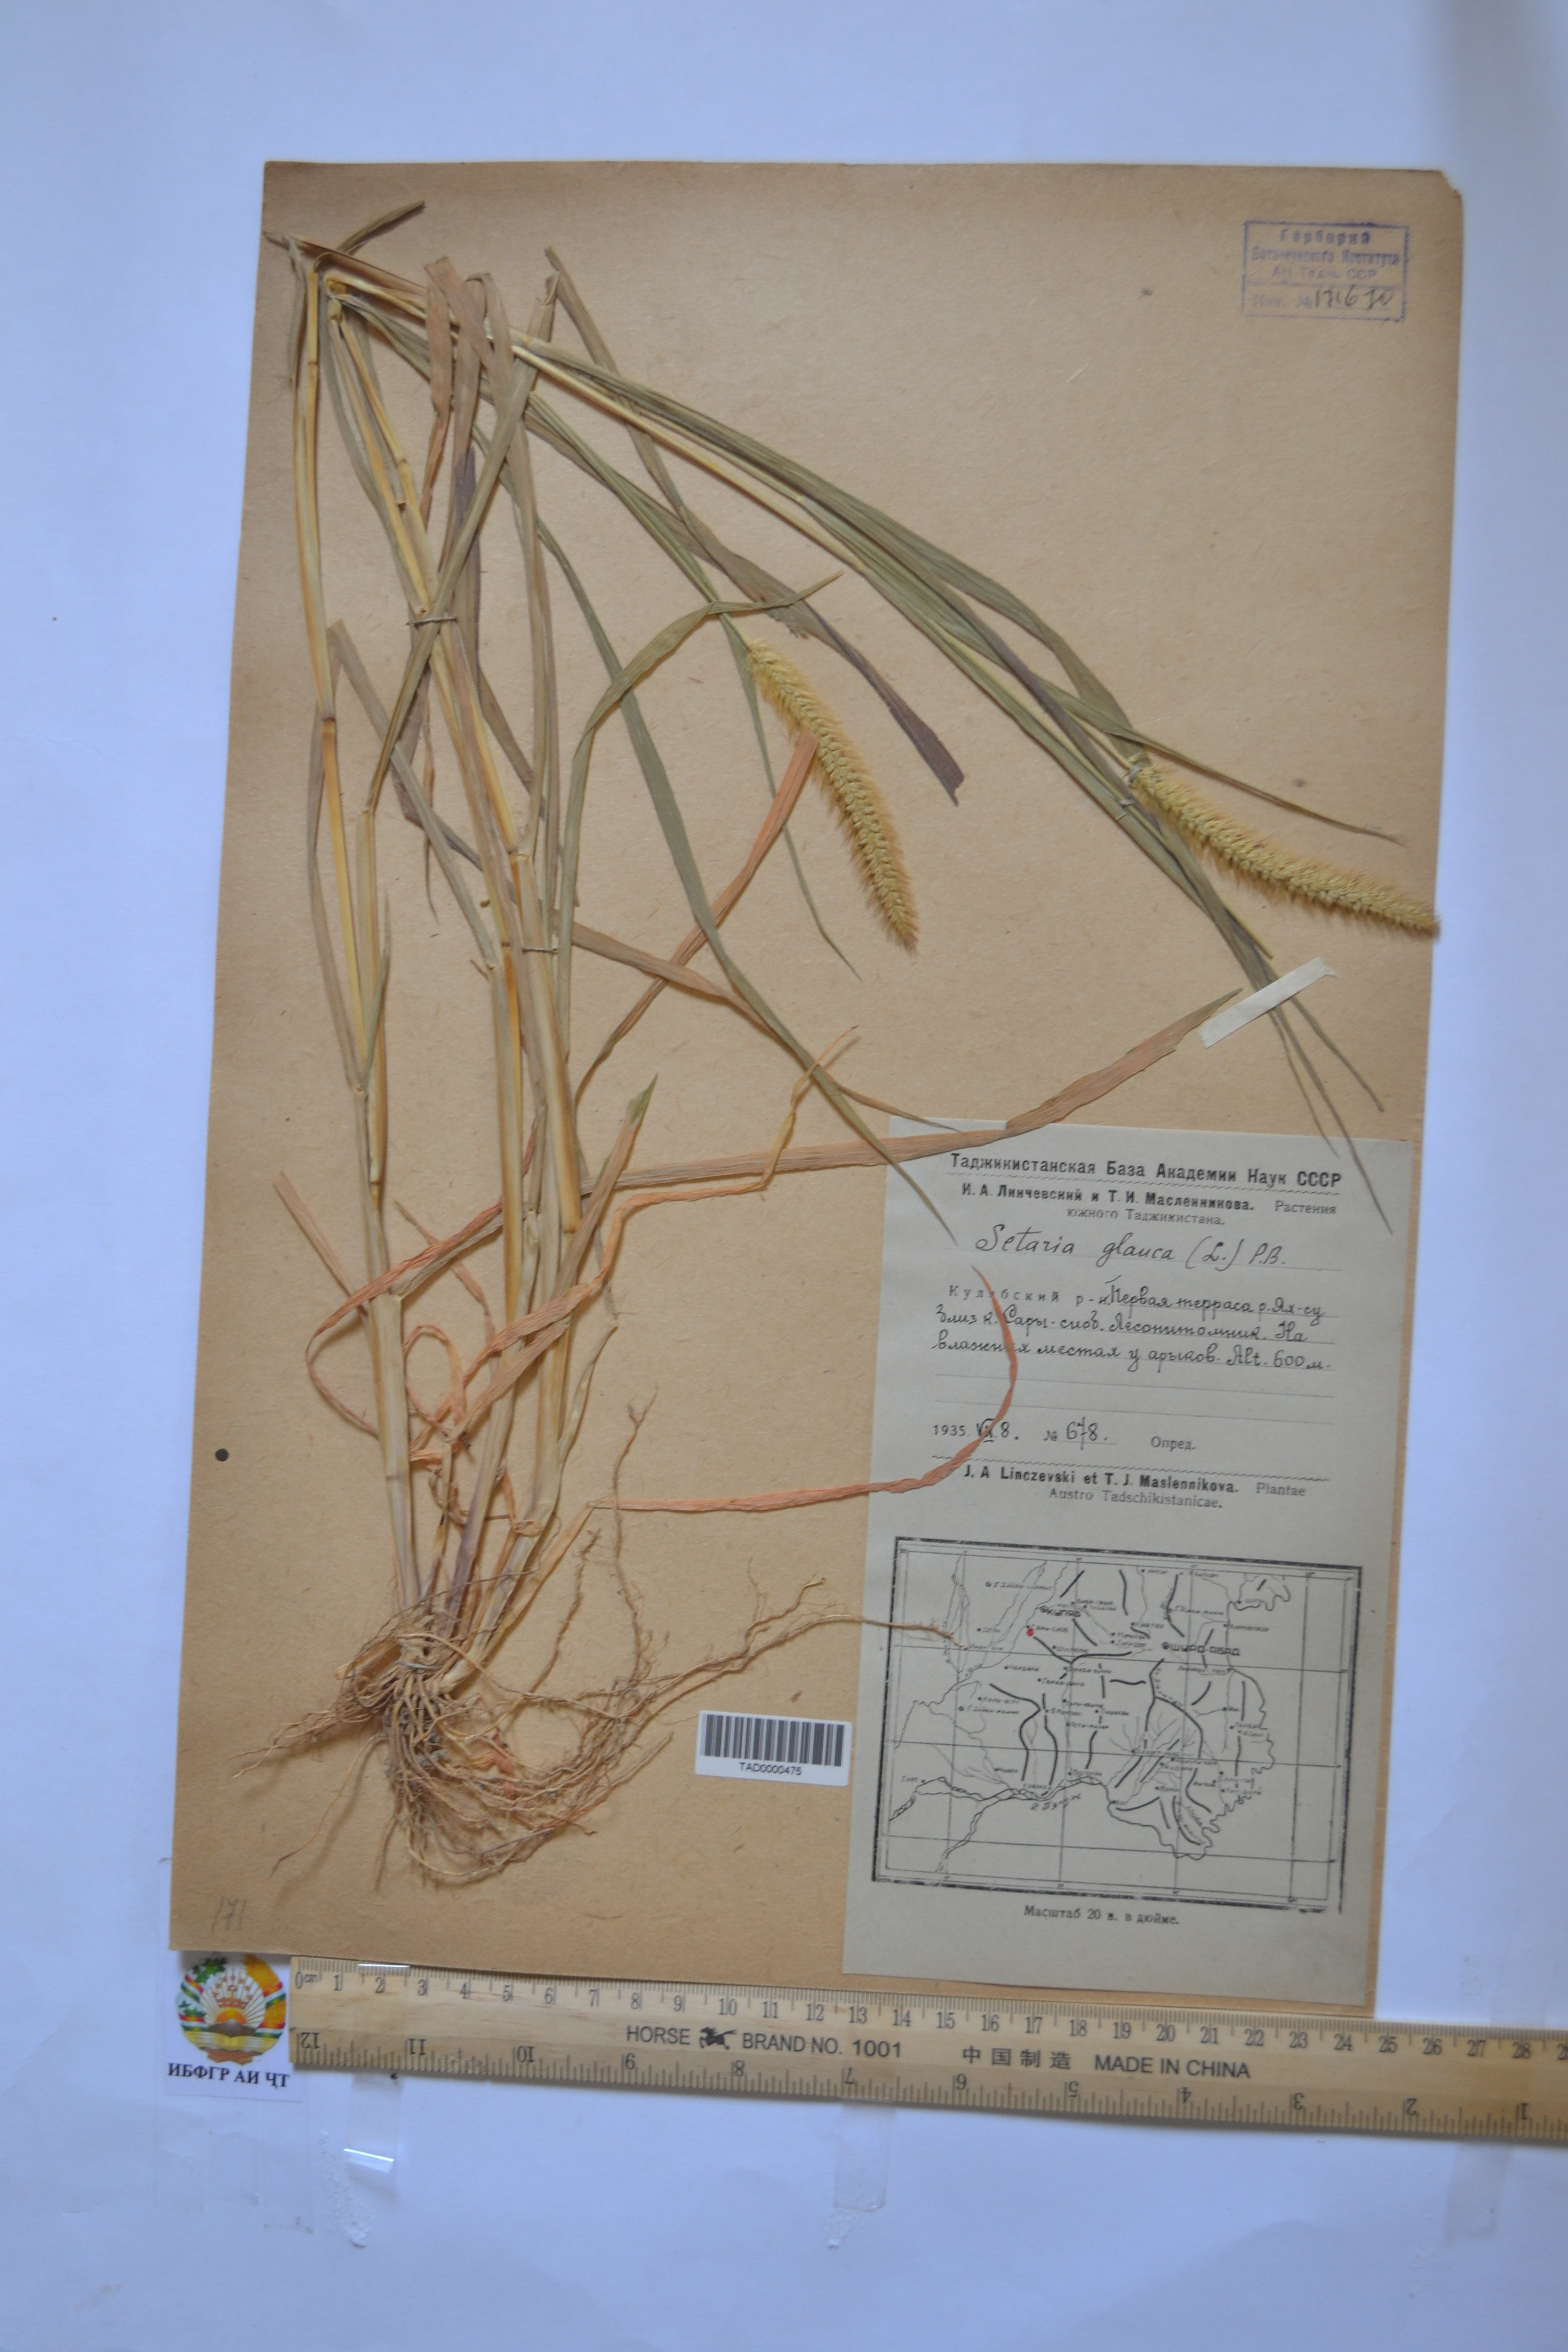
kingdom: Plantae
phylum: Tracheophyta
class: Liliopsida
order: Poales
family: Poaceae
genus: Cenchrus
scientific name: Cenchrus americanus
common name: Pearl millet
